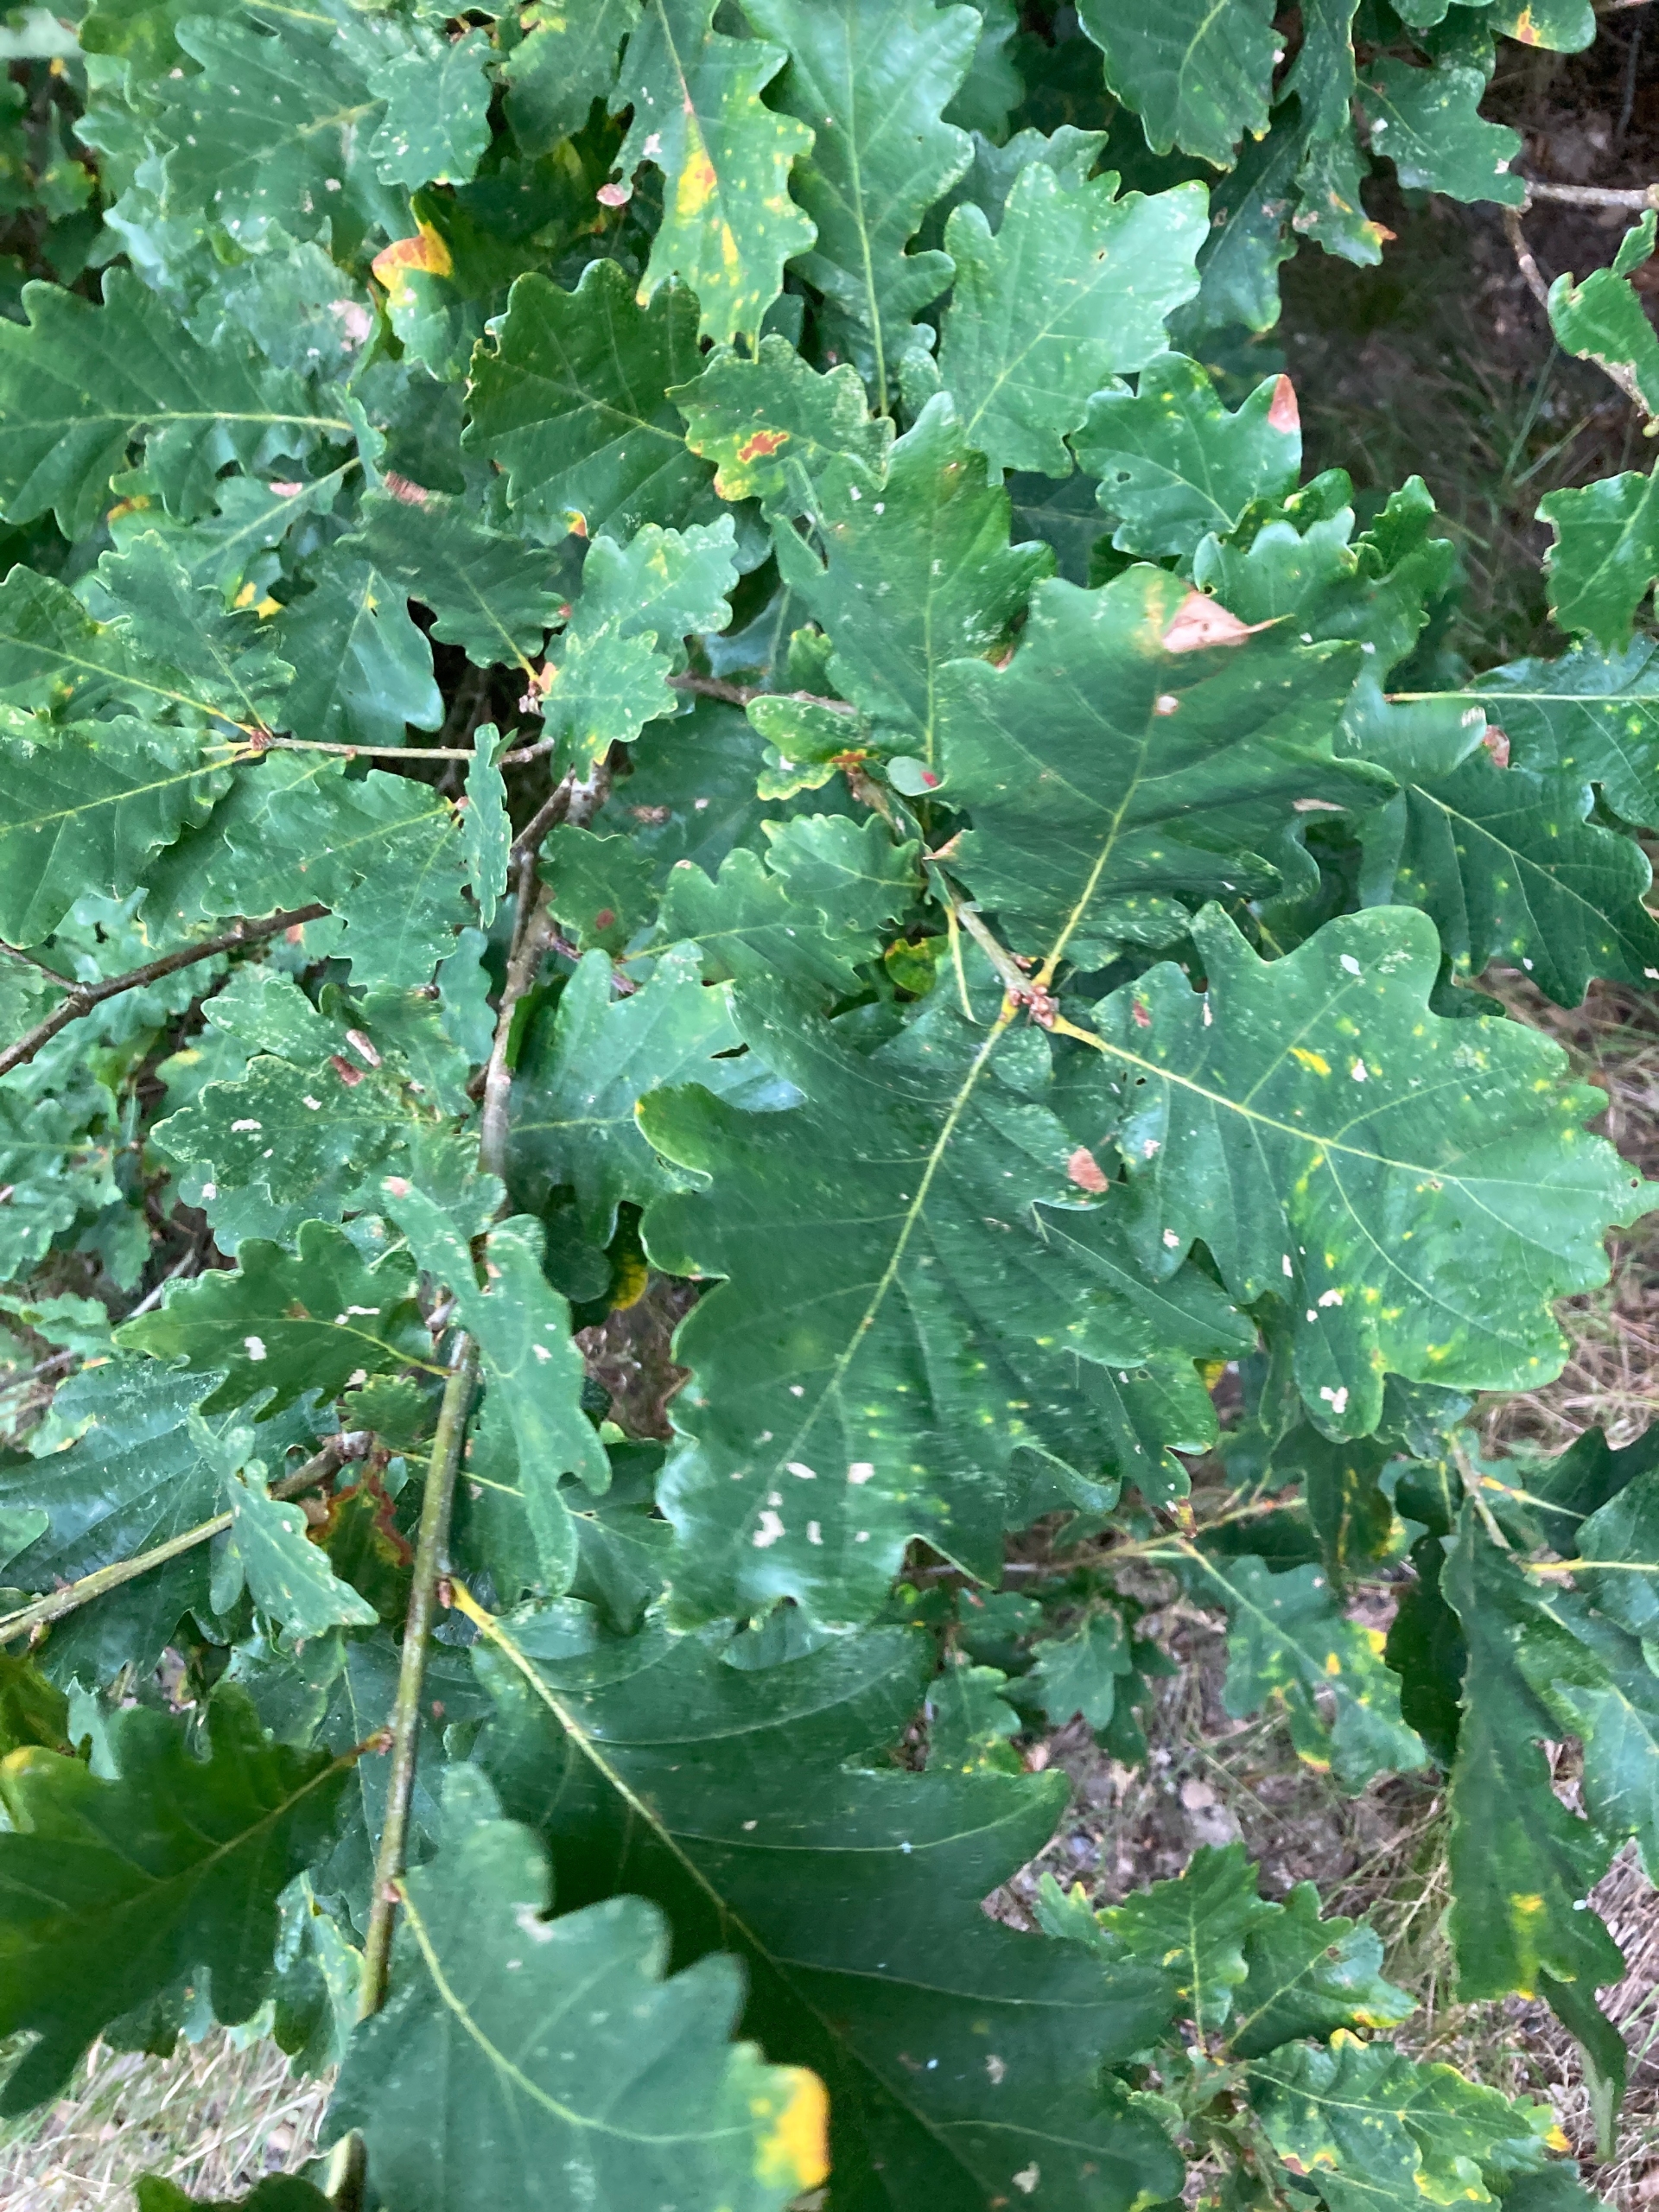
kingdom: Plantae
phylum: Tracheophyta
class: Magnoliopsida
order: Fagales
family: Fagaceae
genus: Quercus
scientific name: Quercus robur
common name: Stilk-eg/almindelig eg
